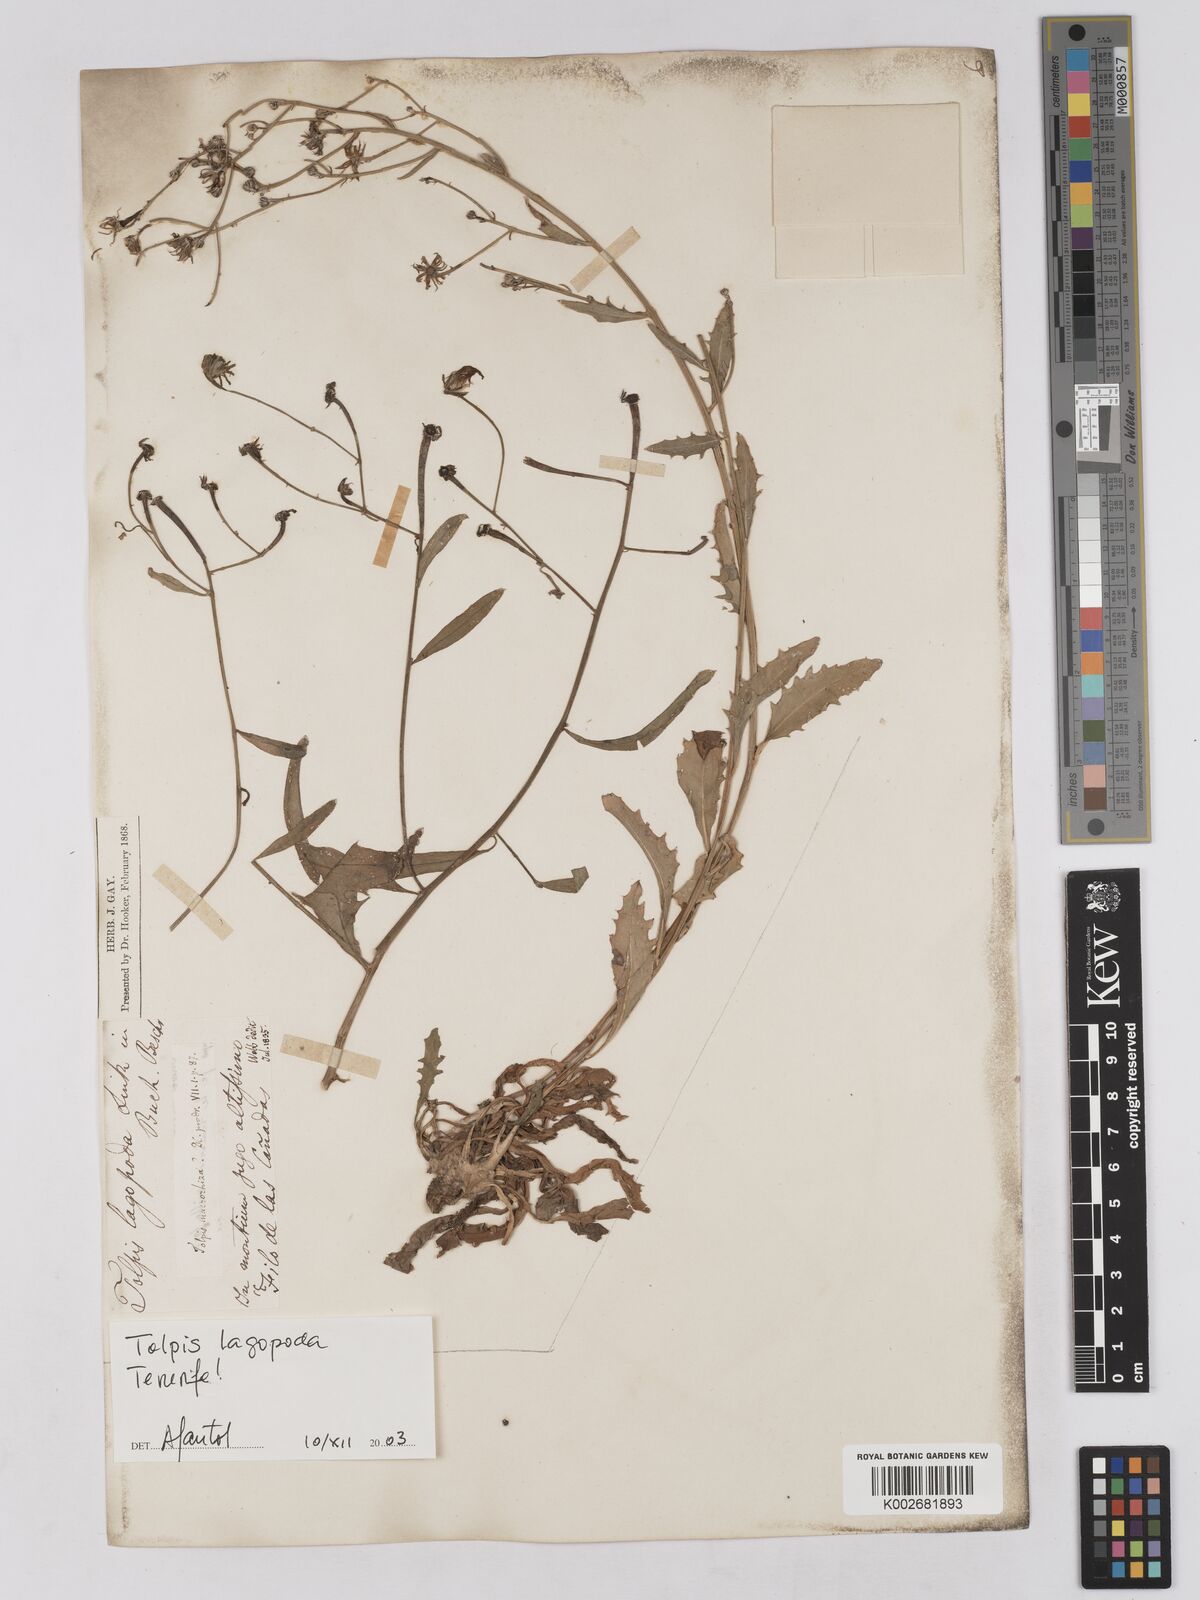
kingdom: Plantae
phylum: Tracheophyta
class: Magnoliopsida
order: Asterales
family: Asteraceae
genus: Tolpis
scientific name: Tolpis succulenta
